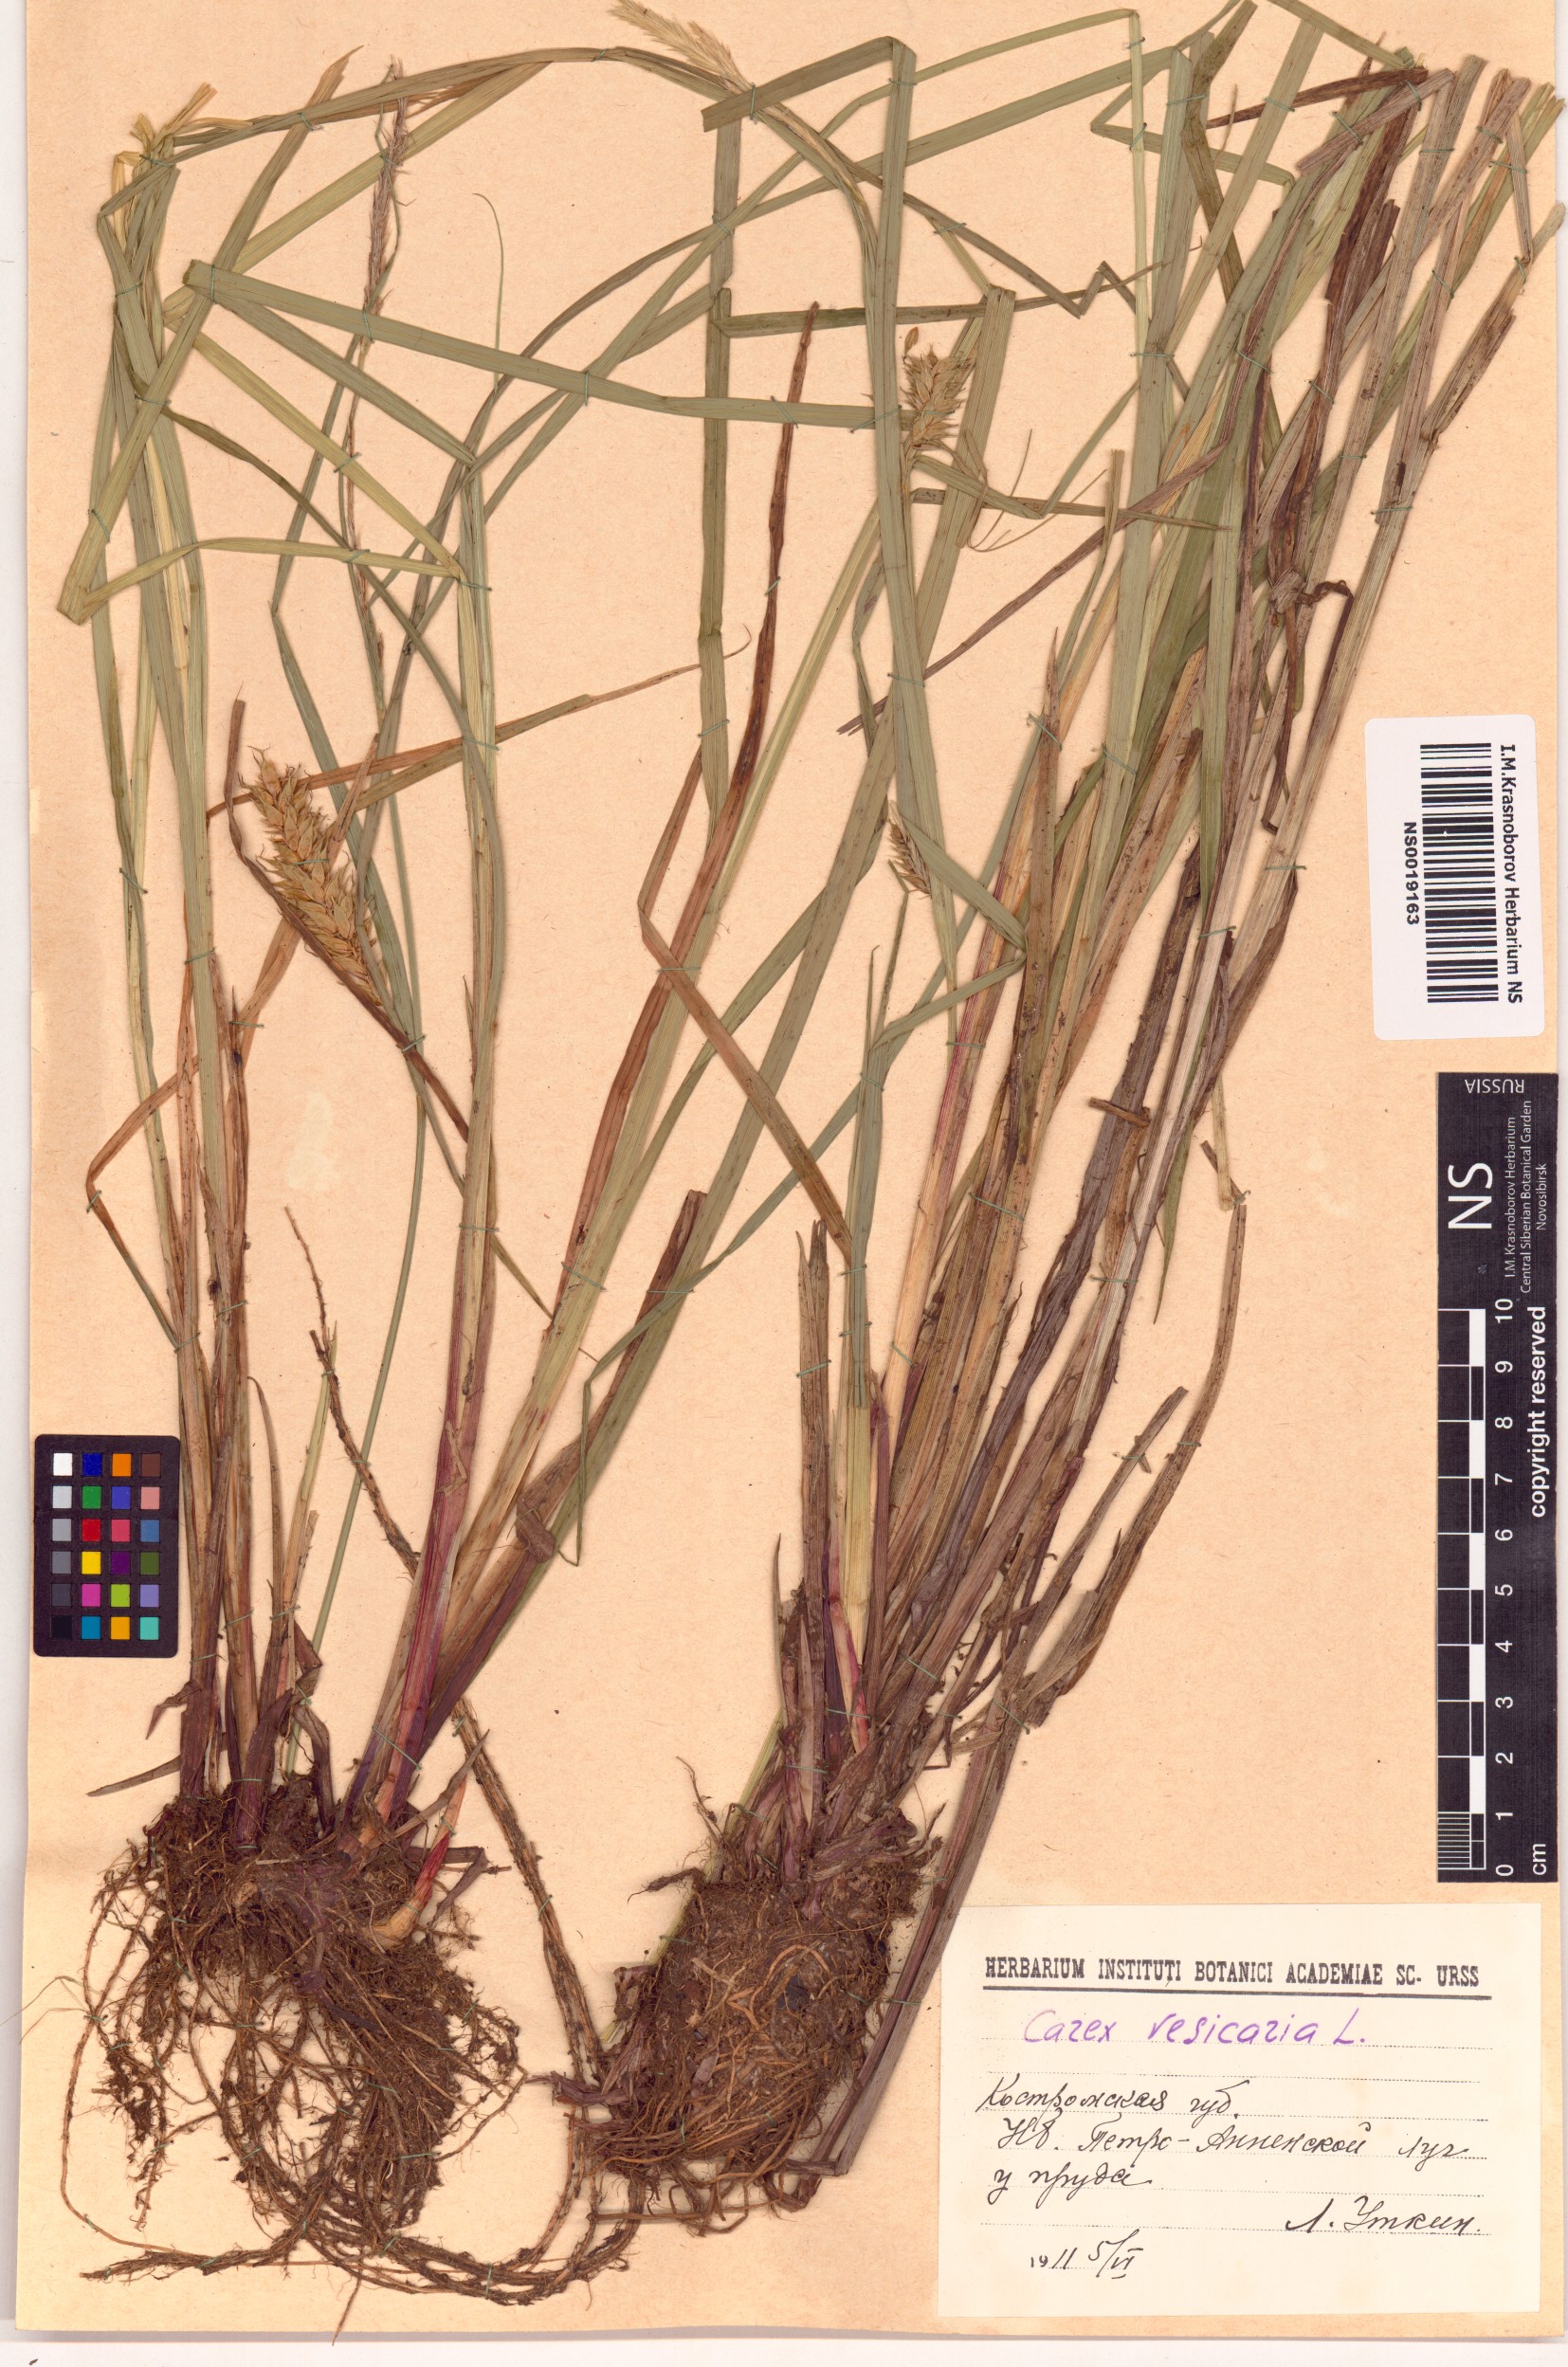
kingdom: Plantae
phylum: Tracheophyta
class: Liliopsida
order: Poales
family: Cyperaceae
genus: Carex
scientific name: Carex vesicaria
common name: Bladder-sedge
